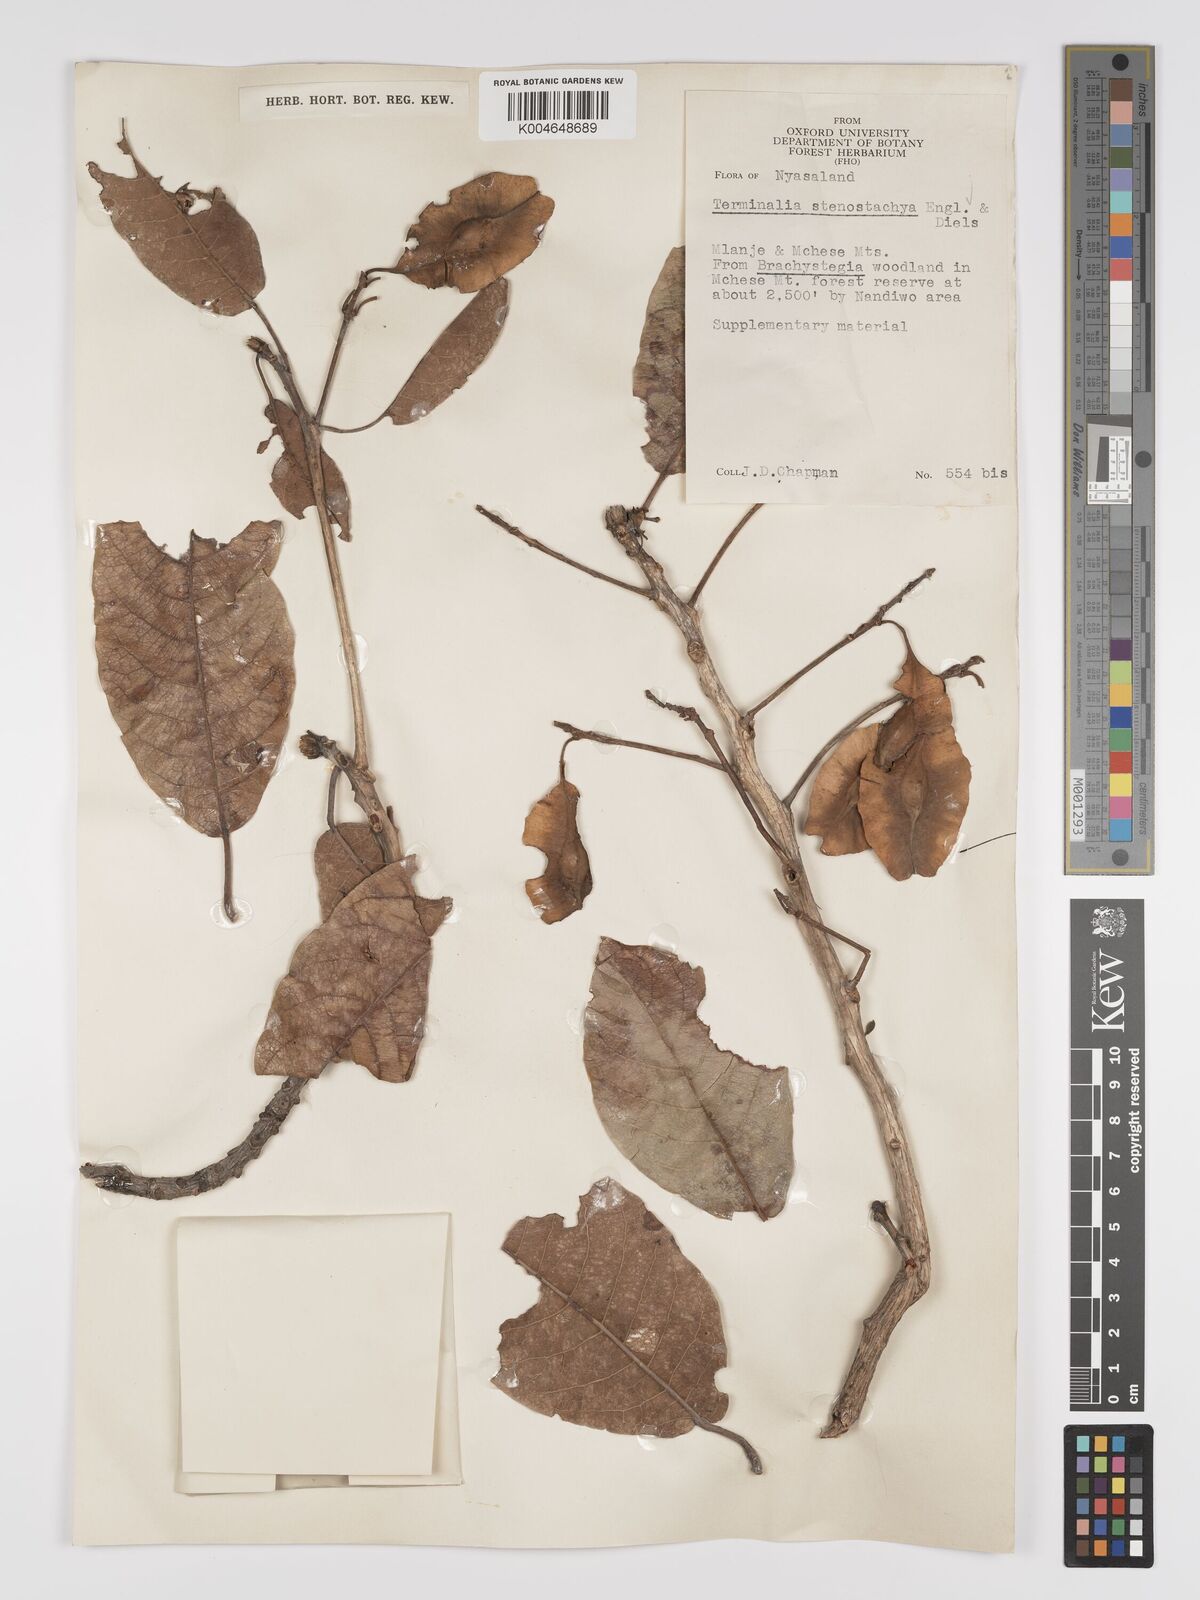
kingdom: Plantae
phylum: Tracheophyta
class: Magnoliopsida
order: Myrtales
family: Combretaceae
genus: Terminalia
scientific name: Terminalia stenostachya
